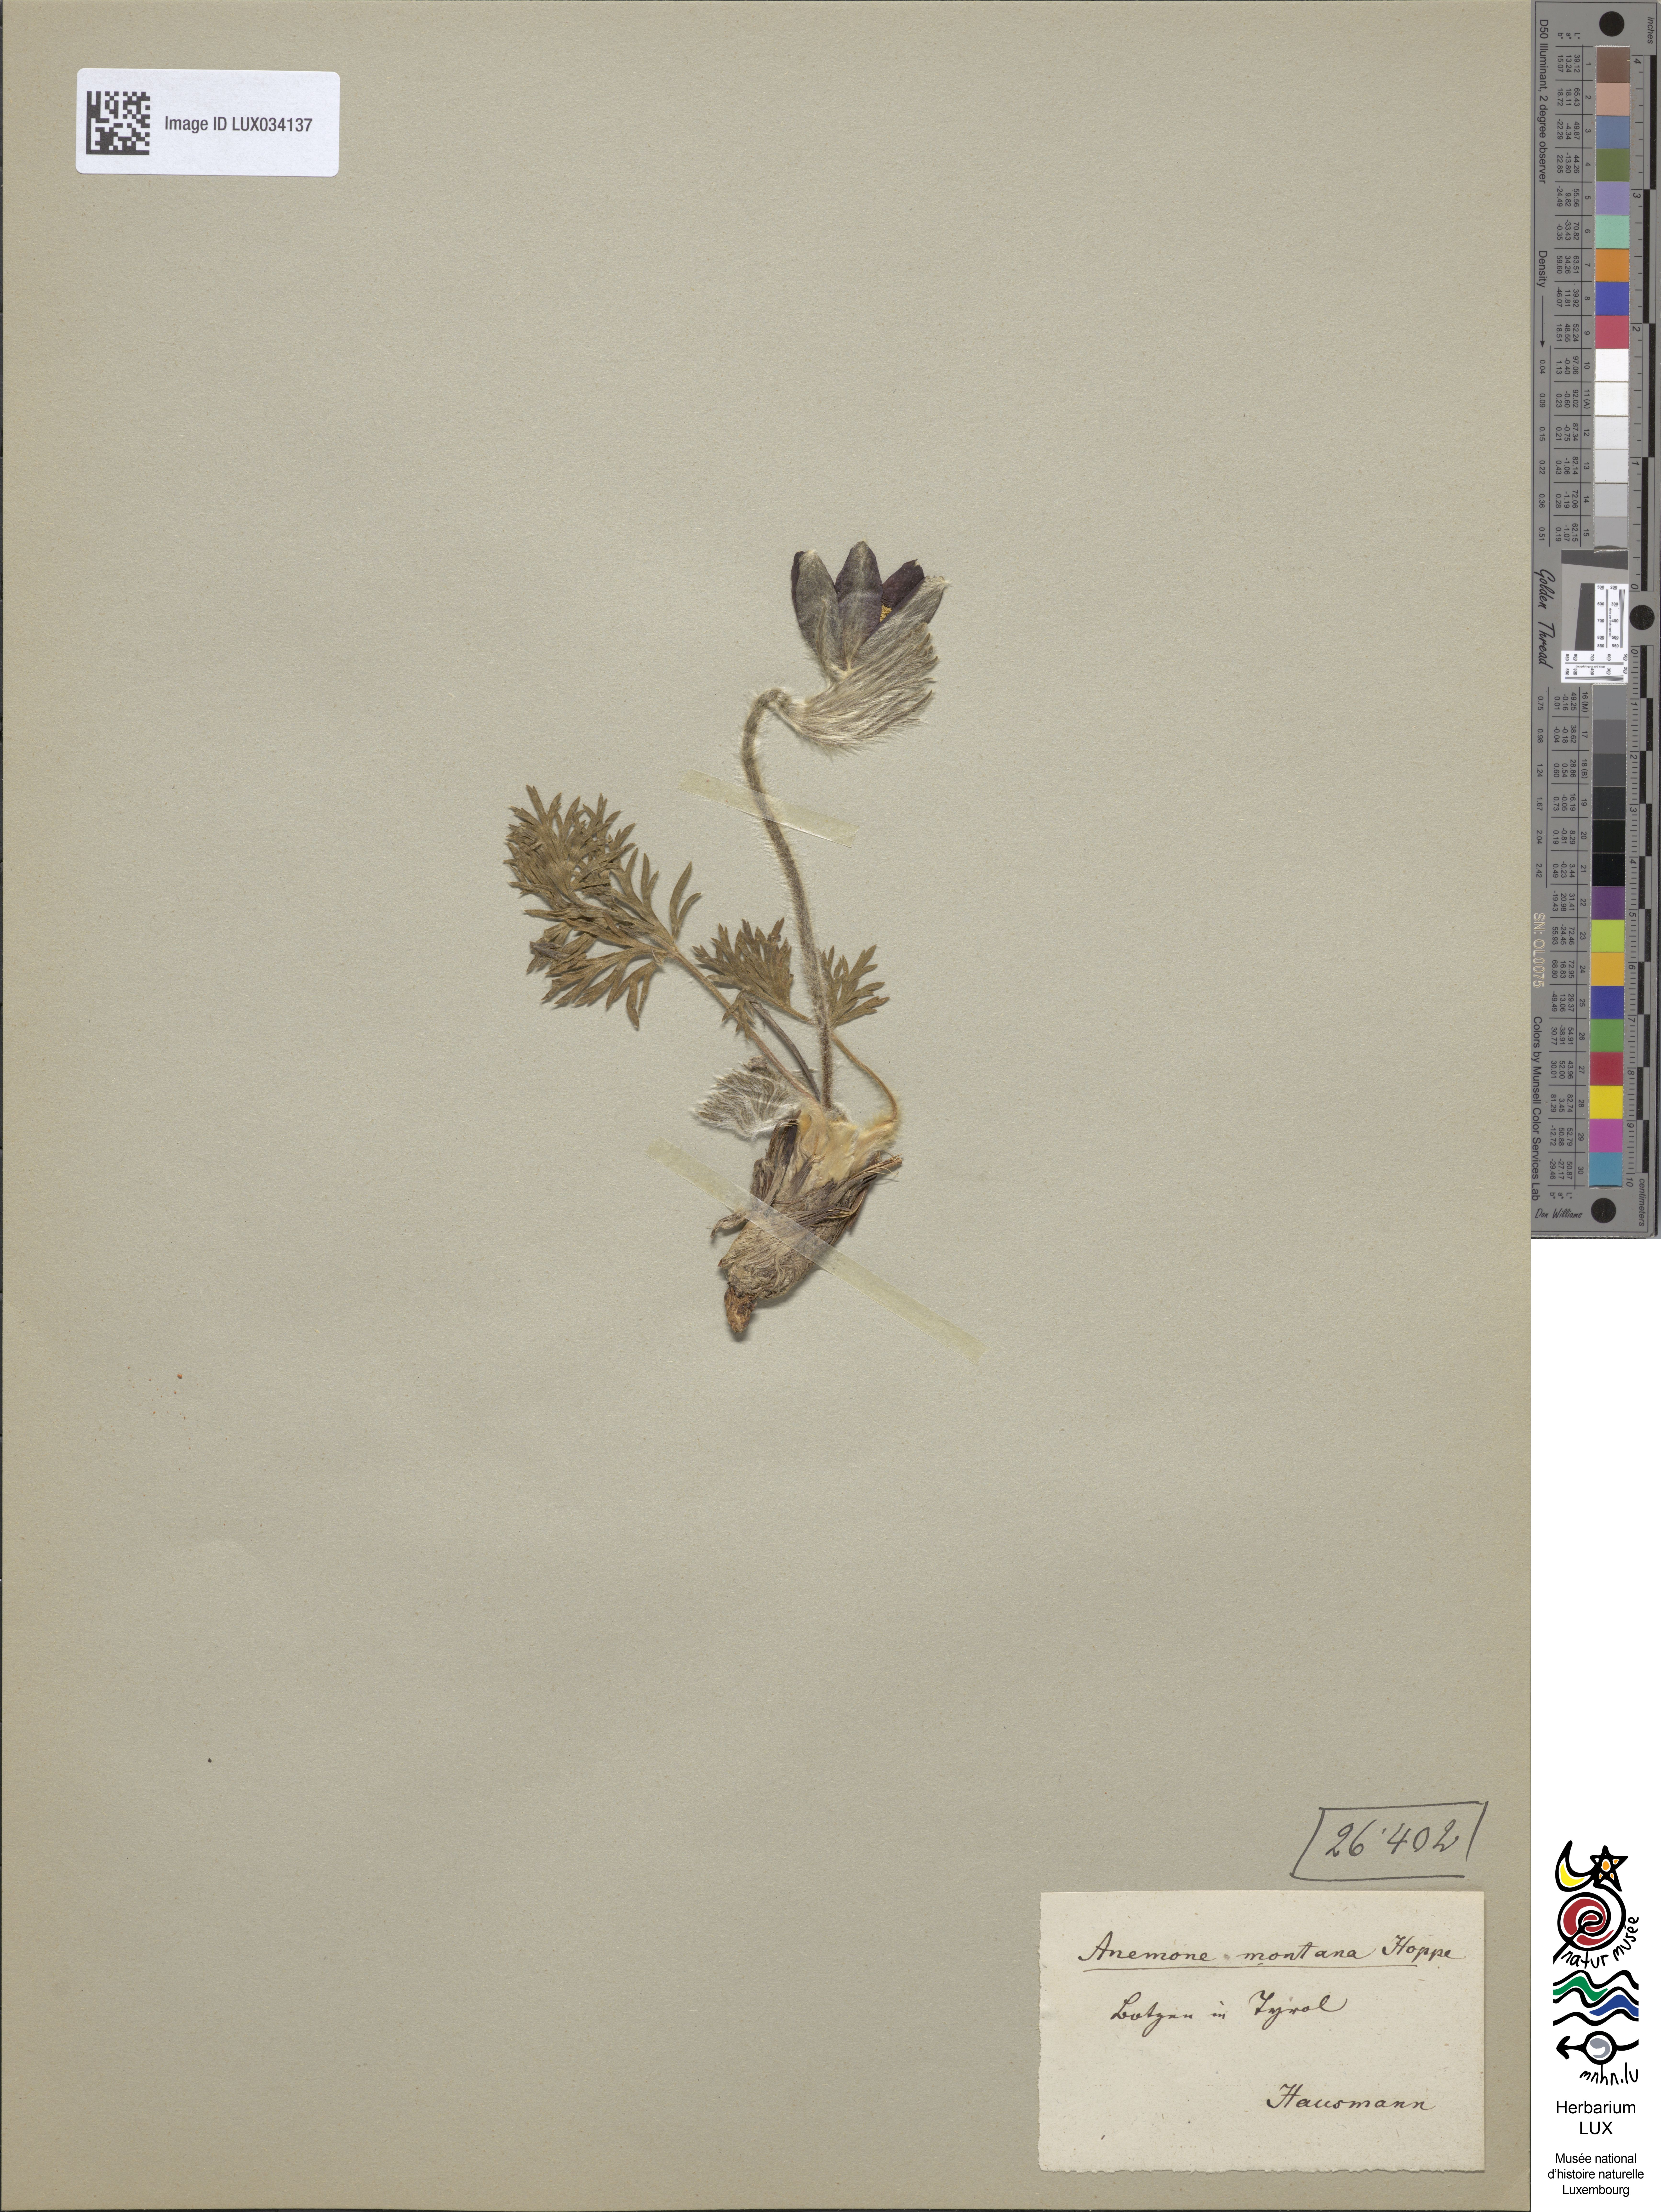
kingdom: Plantae
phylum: Tracheophyta
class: Magnoliopsida
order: Ranunculales
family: Ranunculaceae
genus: Pulsatilla
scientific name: Pulsatilla montana
